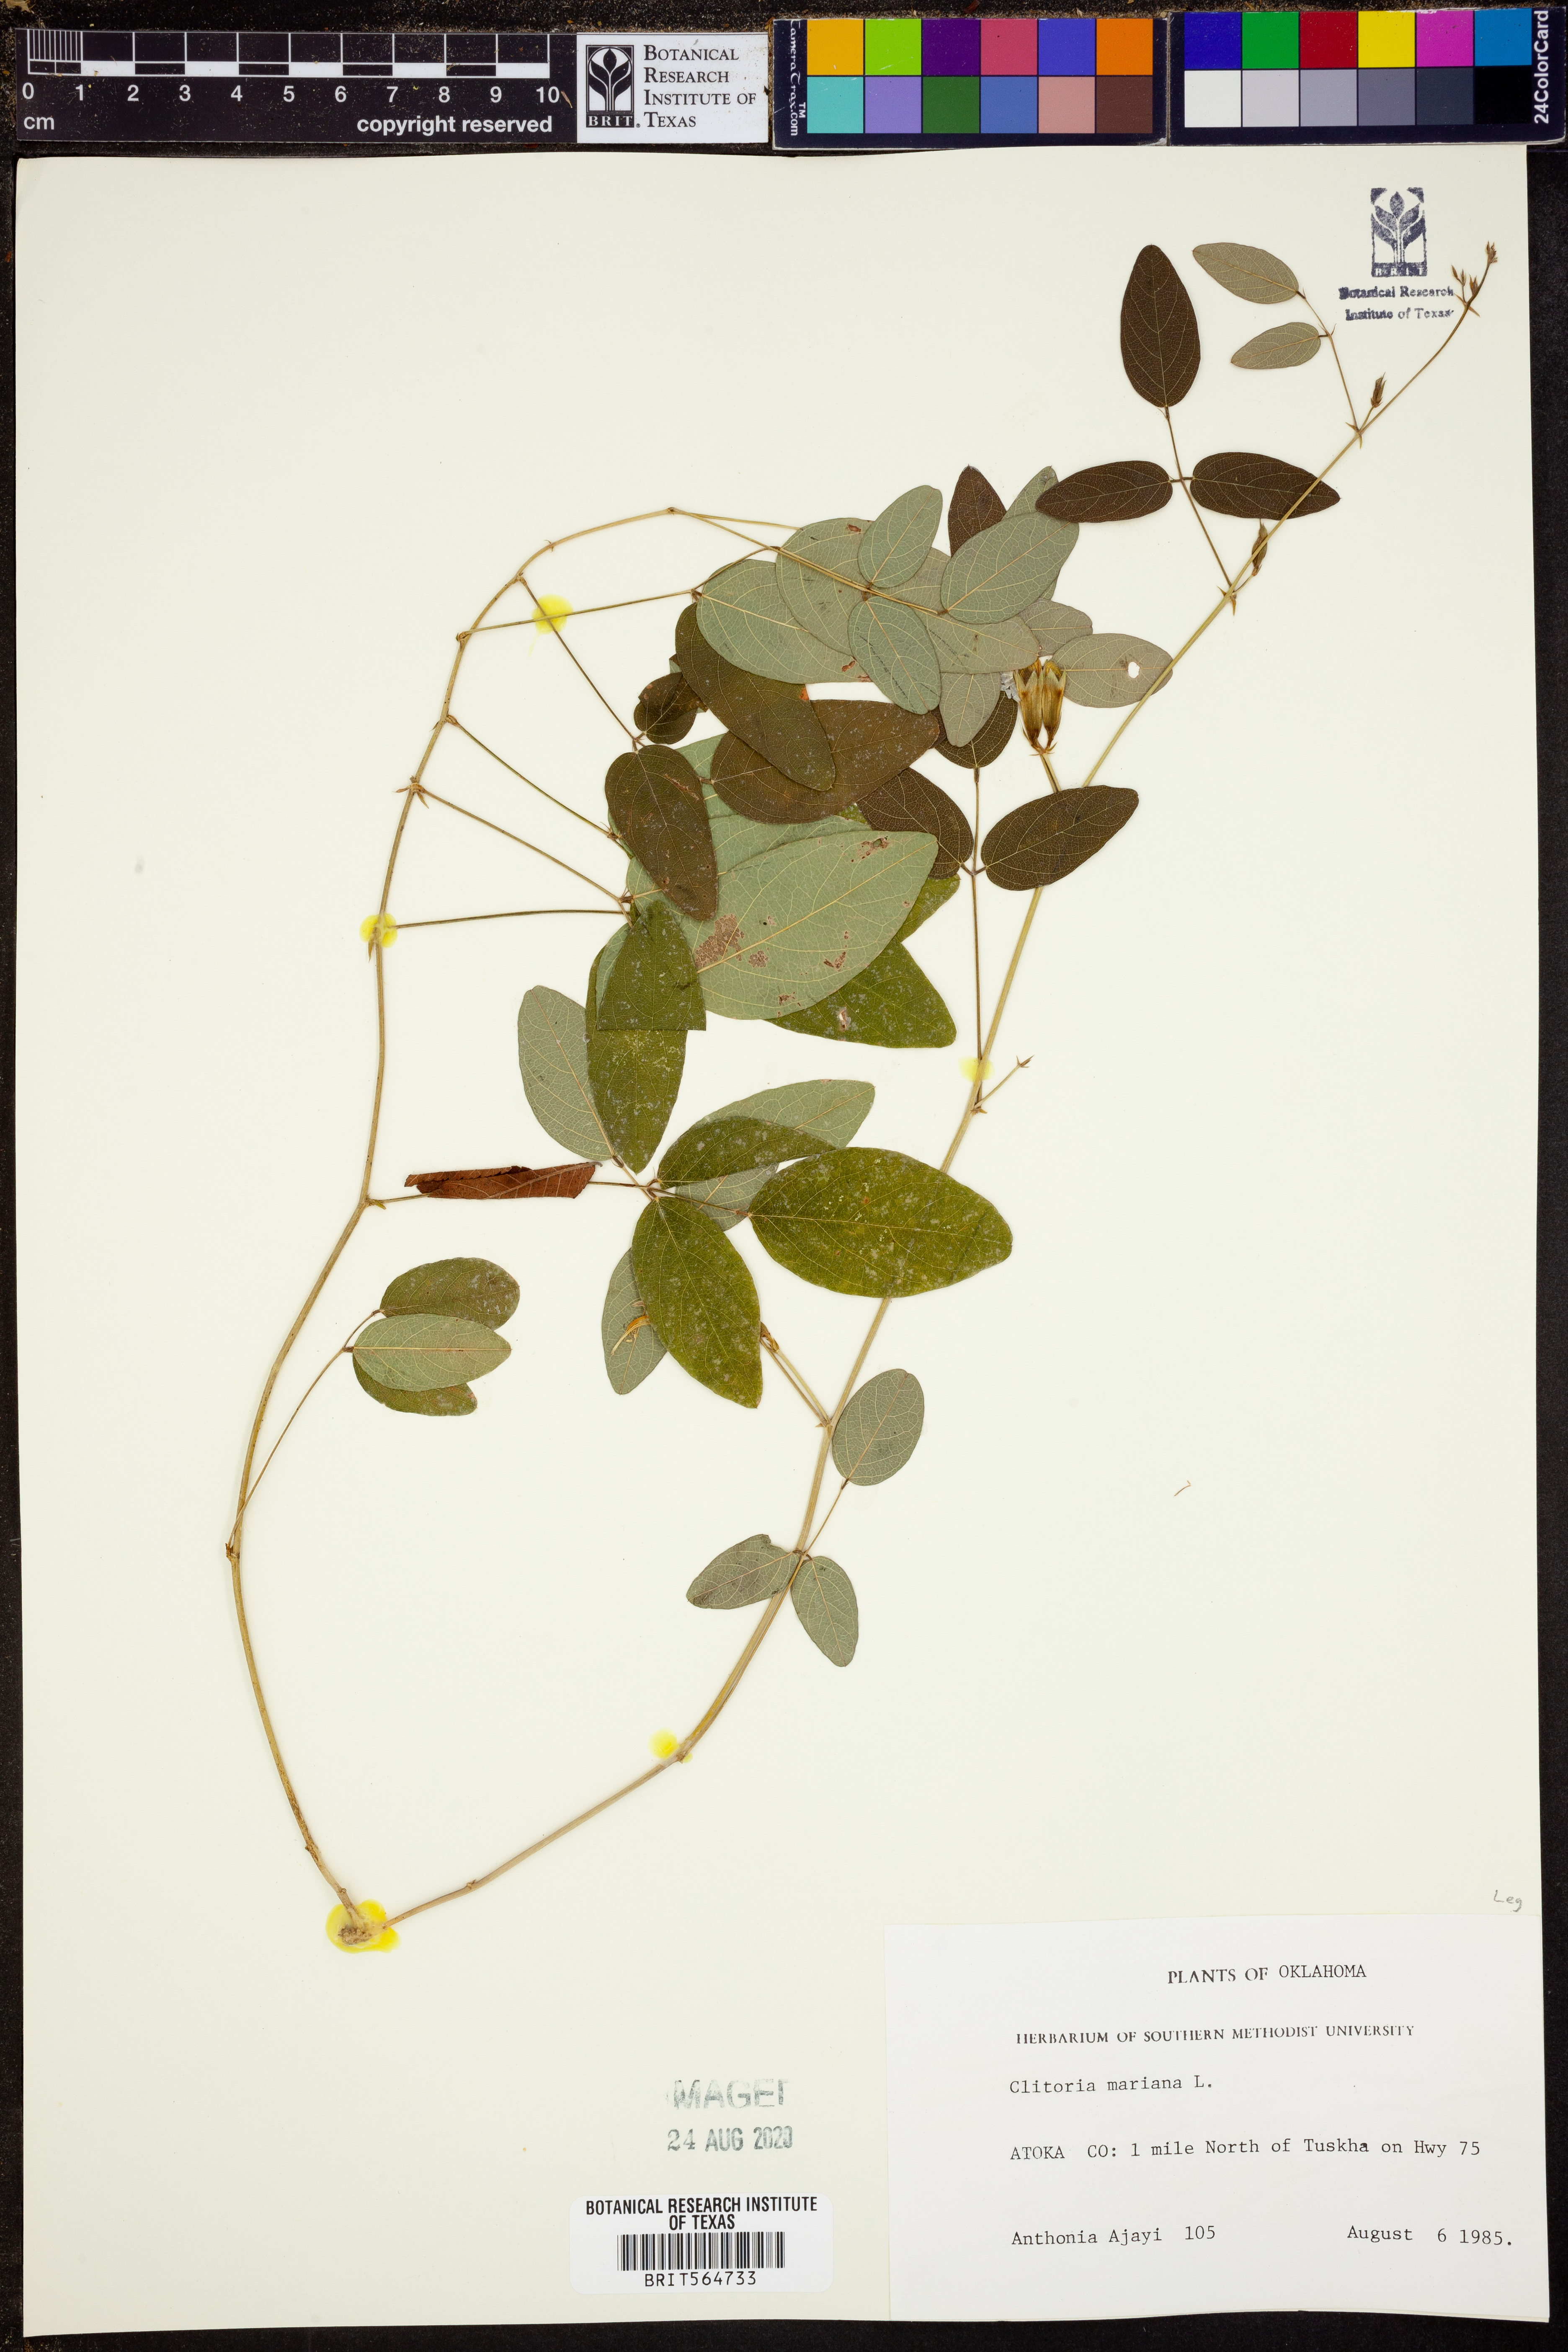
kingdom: Plantae
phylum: Tracheophyta
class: Magnoliopsida
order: Fabales
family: Fabaceae
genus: Clitoria
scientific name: Clitoria mariana
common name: Butterfly-pea
